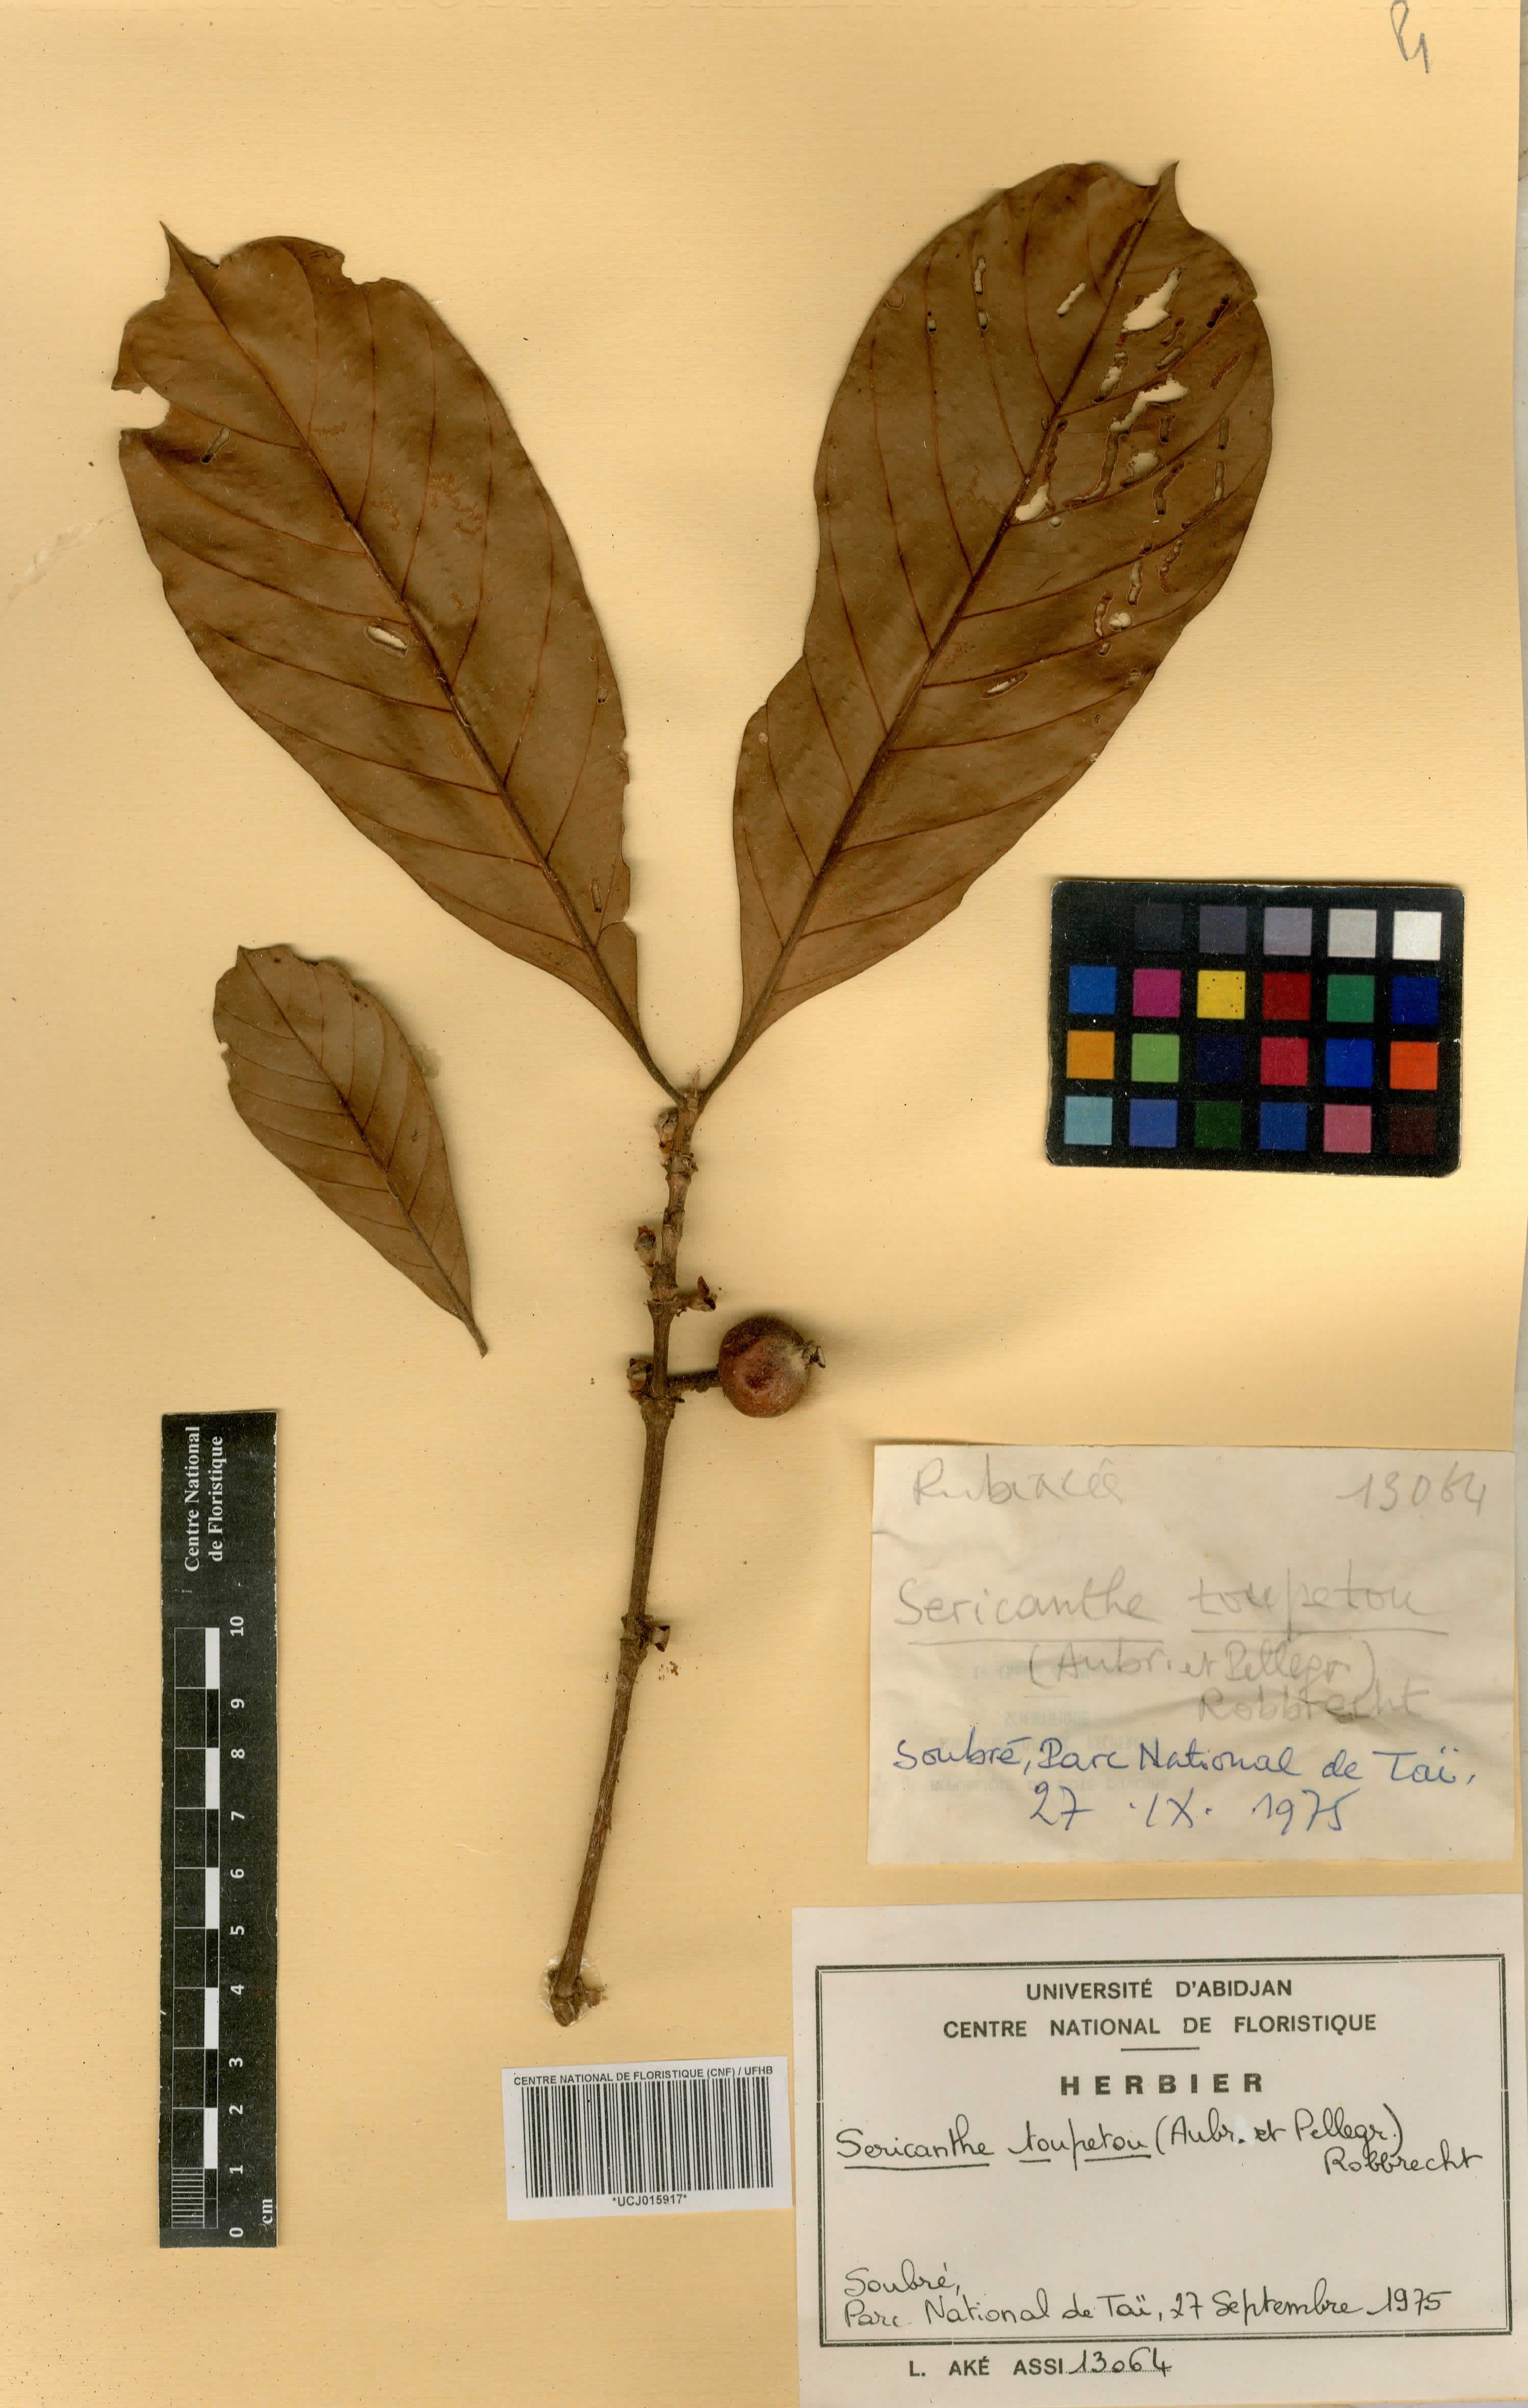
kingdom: Plantae
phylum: Tracheophyta
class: Magnoliopsida
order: Gentianales
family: Rubiaceae
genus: Sericanthe
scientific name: Sericanthe toupetou
